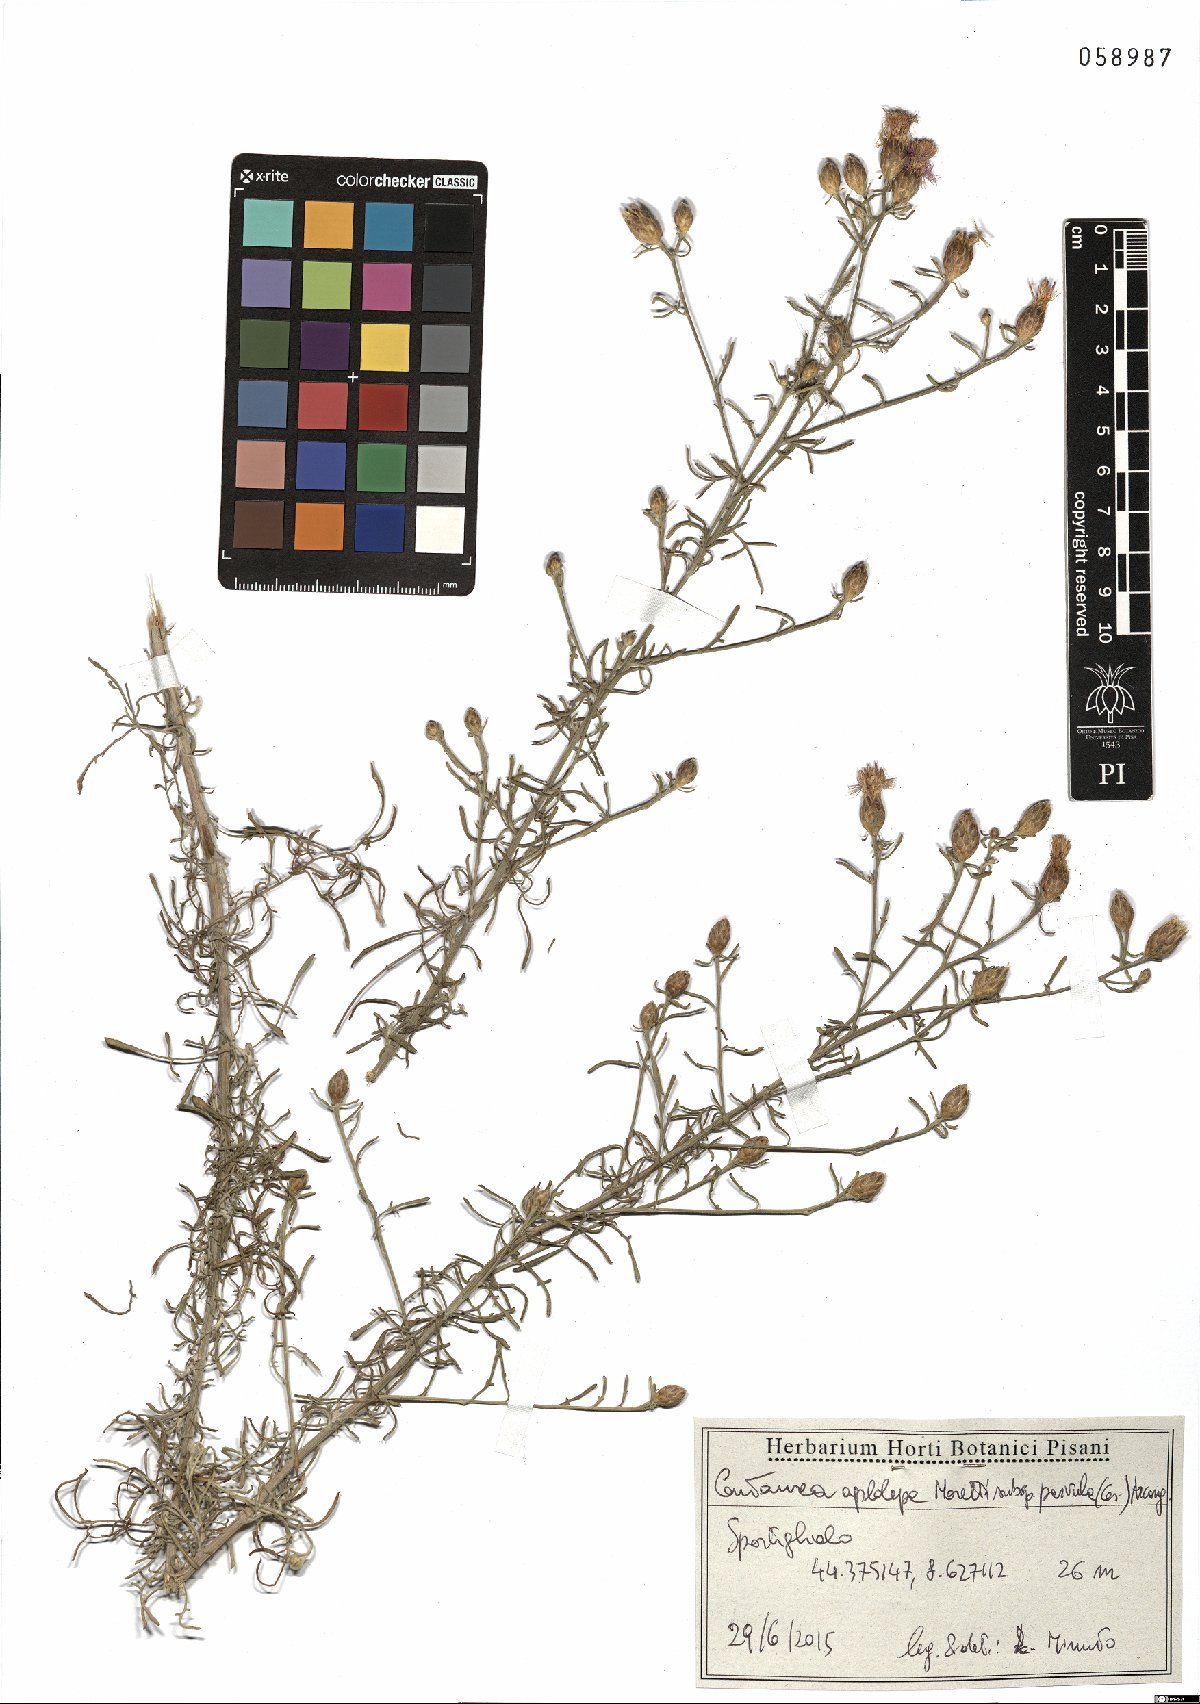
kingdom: Plantae
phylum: Tracheophyta
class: Magnoliopsida
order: Asterales
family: Asteraceae
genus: Centaurea
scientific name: Centaurea aplolepa
